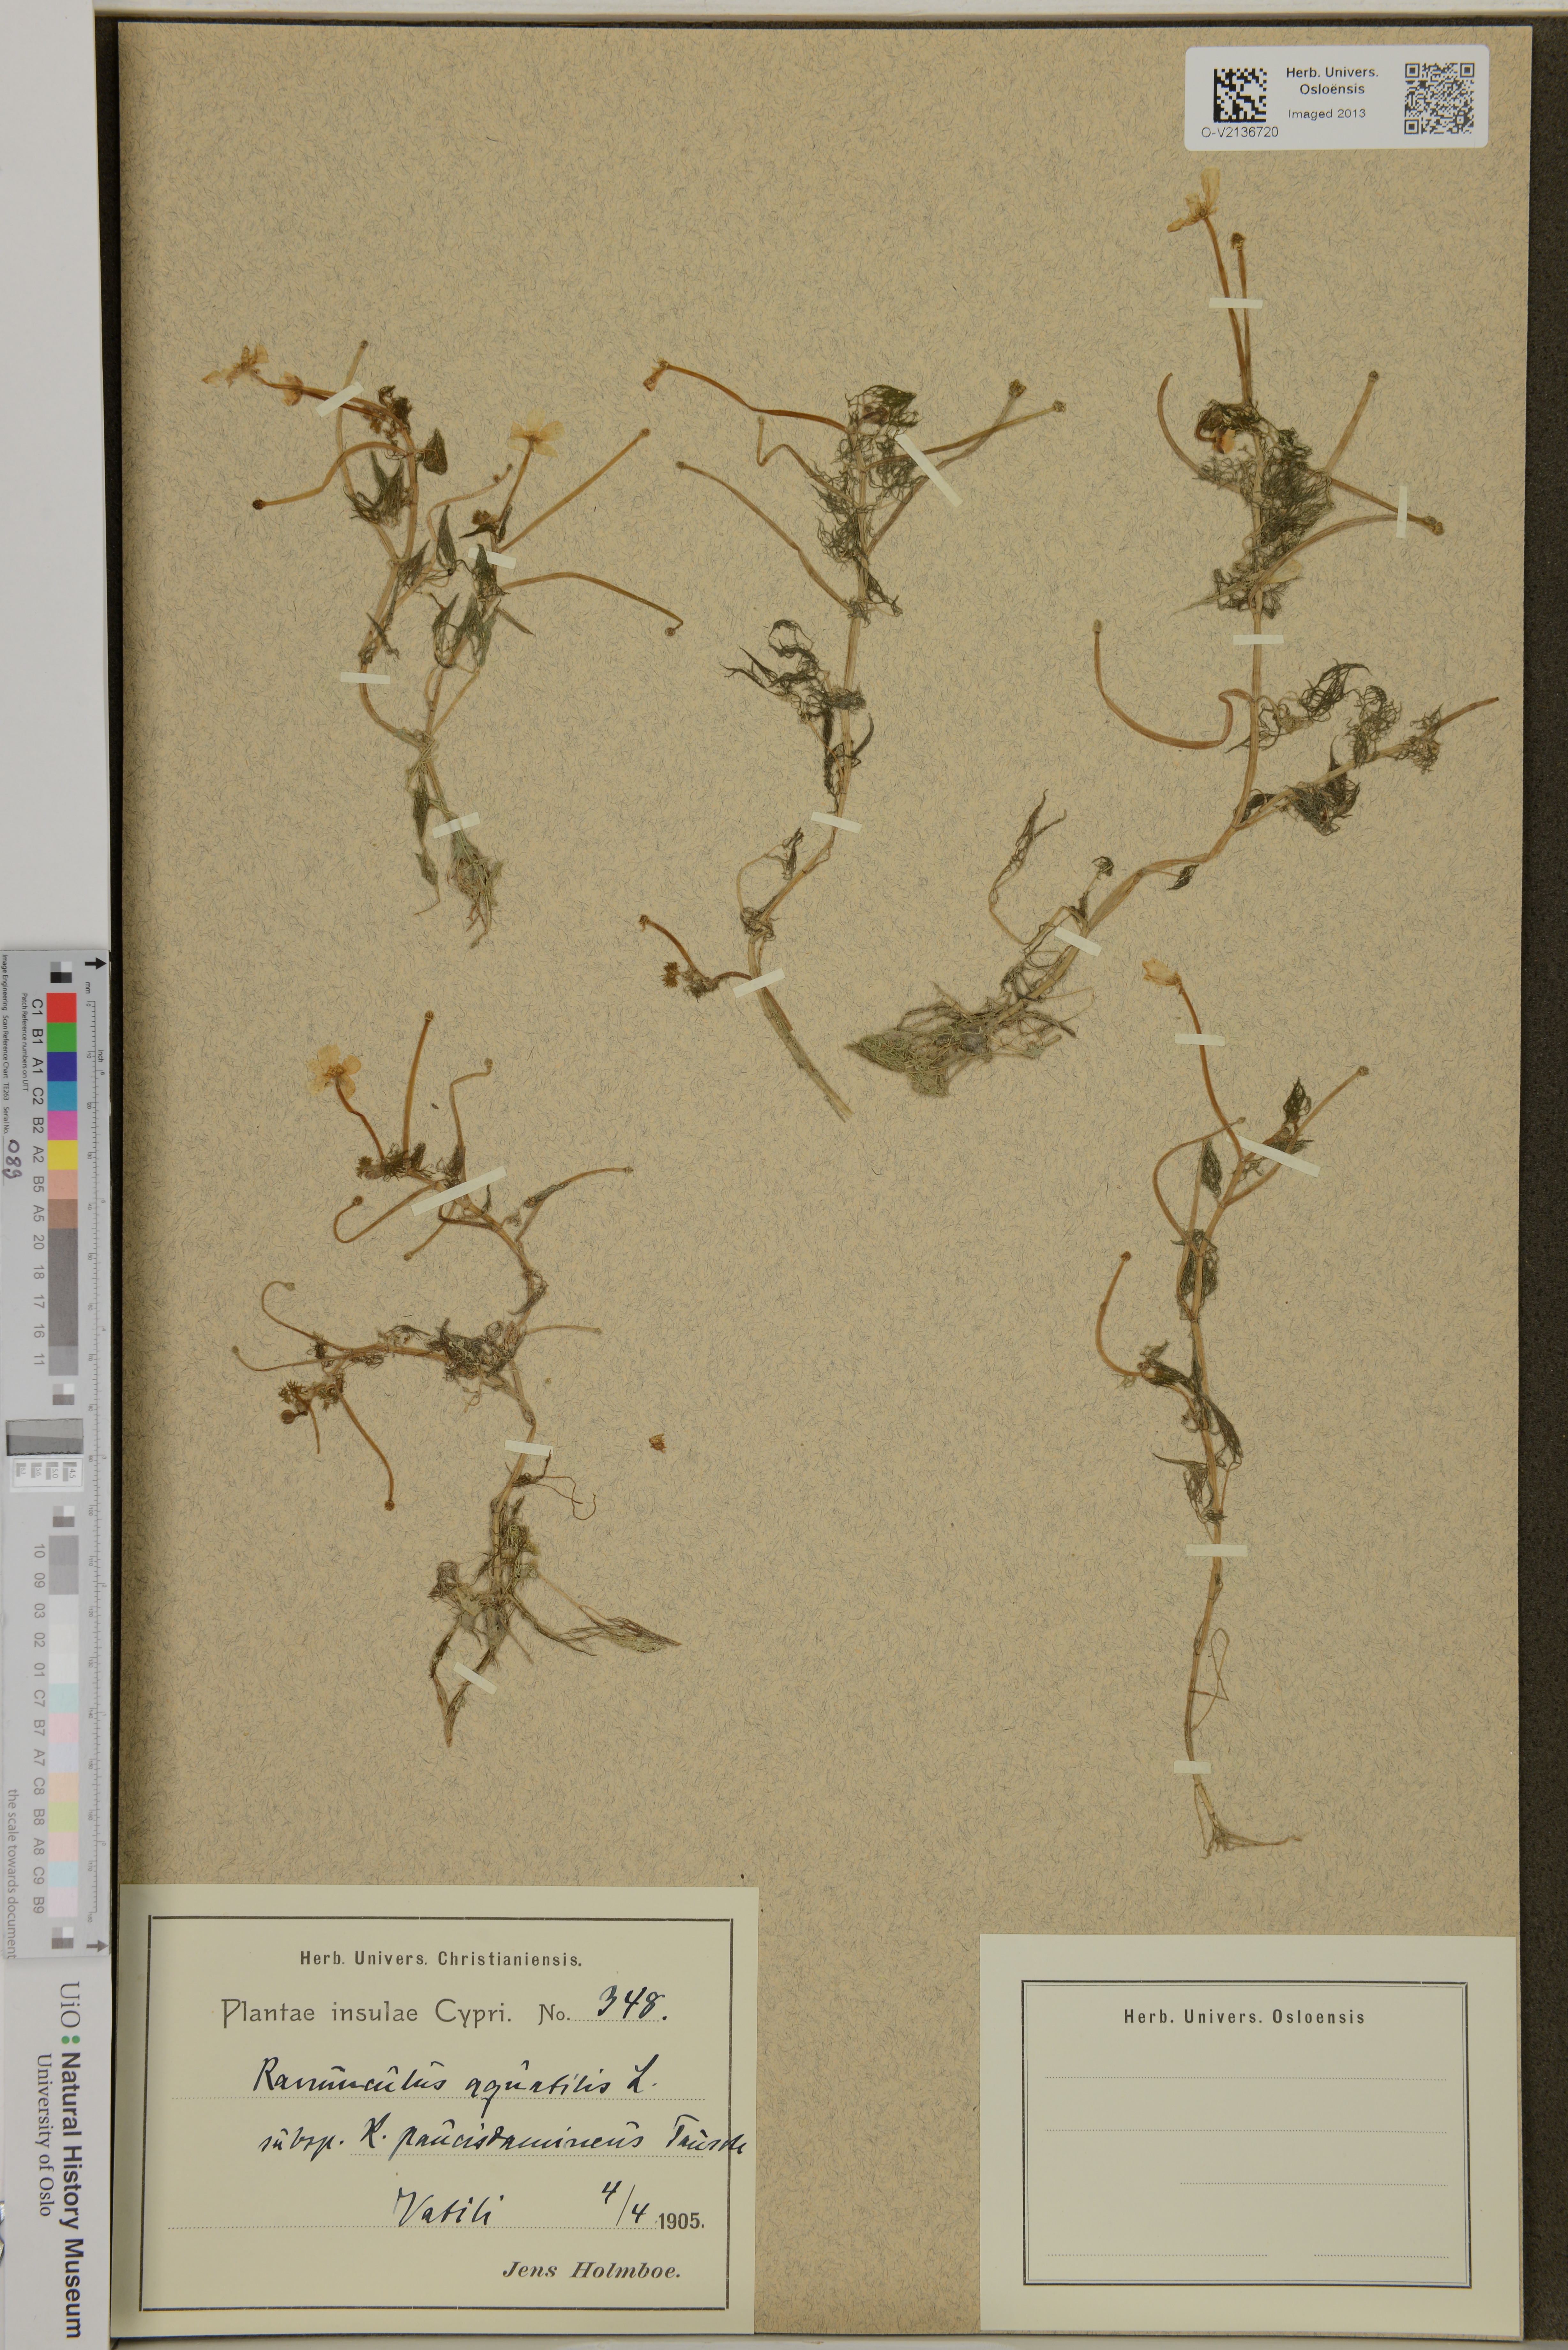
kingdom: Plantae
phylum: Tracheophyta
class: Magnoliopsida
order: Ranunculales
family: Ranunculaceae
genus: Ranunculus
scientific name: Ranunculus aquatilis
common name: Common water-crowfoot
